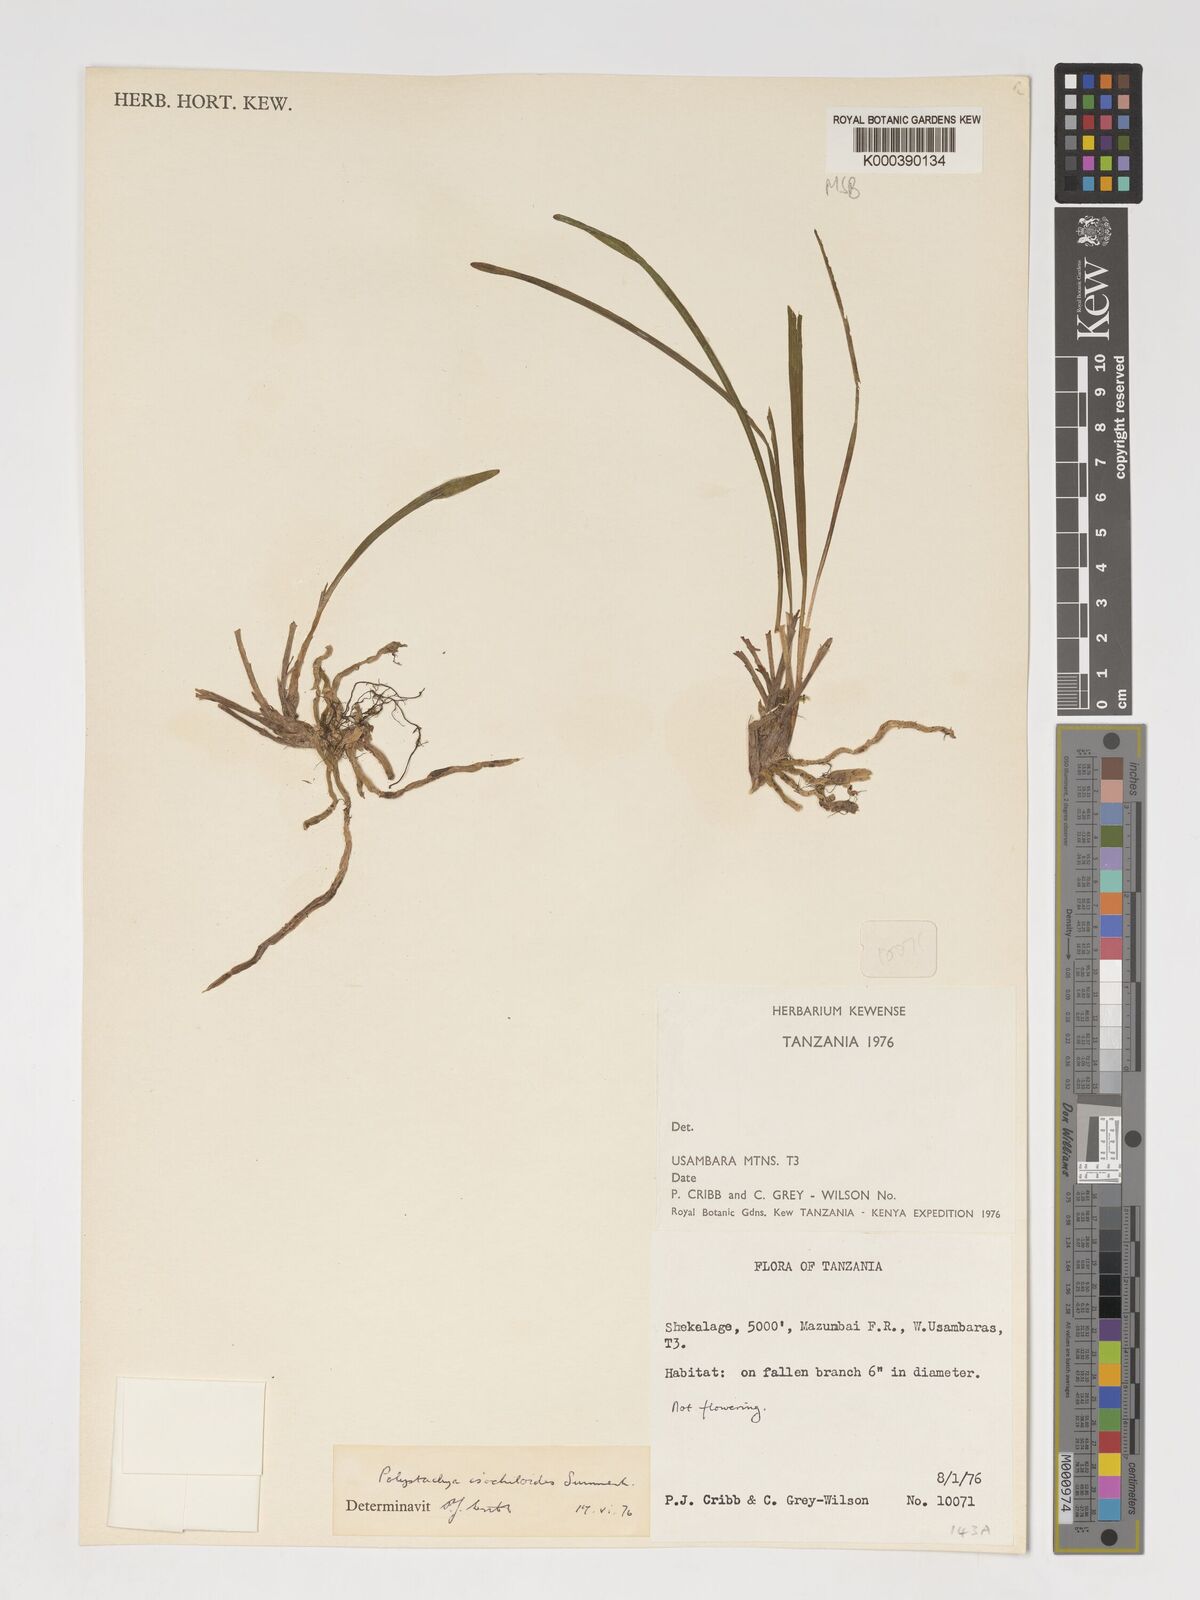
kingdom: Plantae
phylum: Tracheophyta
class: Liliopsida
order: Asparagales
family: Orchidaceae
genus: Polystachya
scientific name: Polystachya isochiloides
